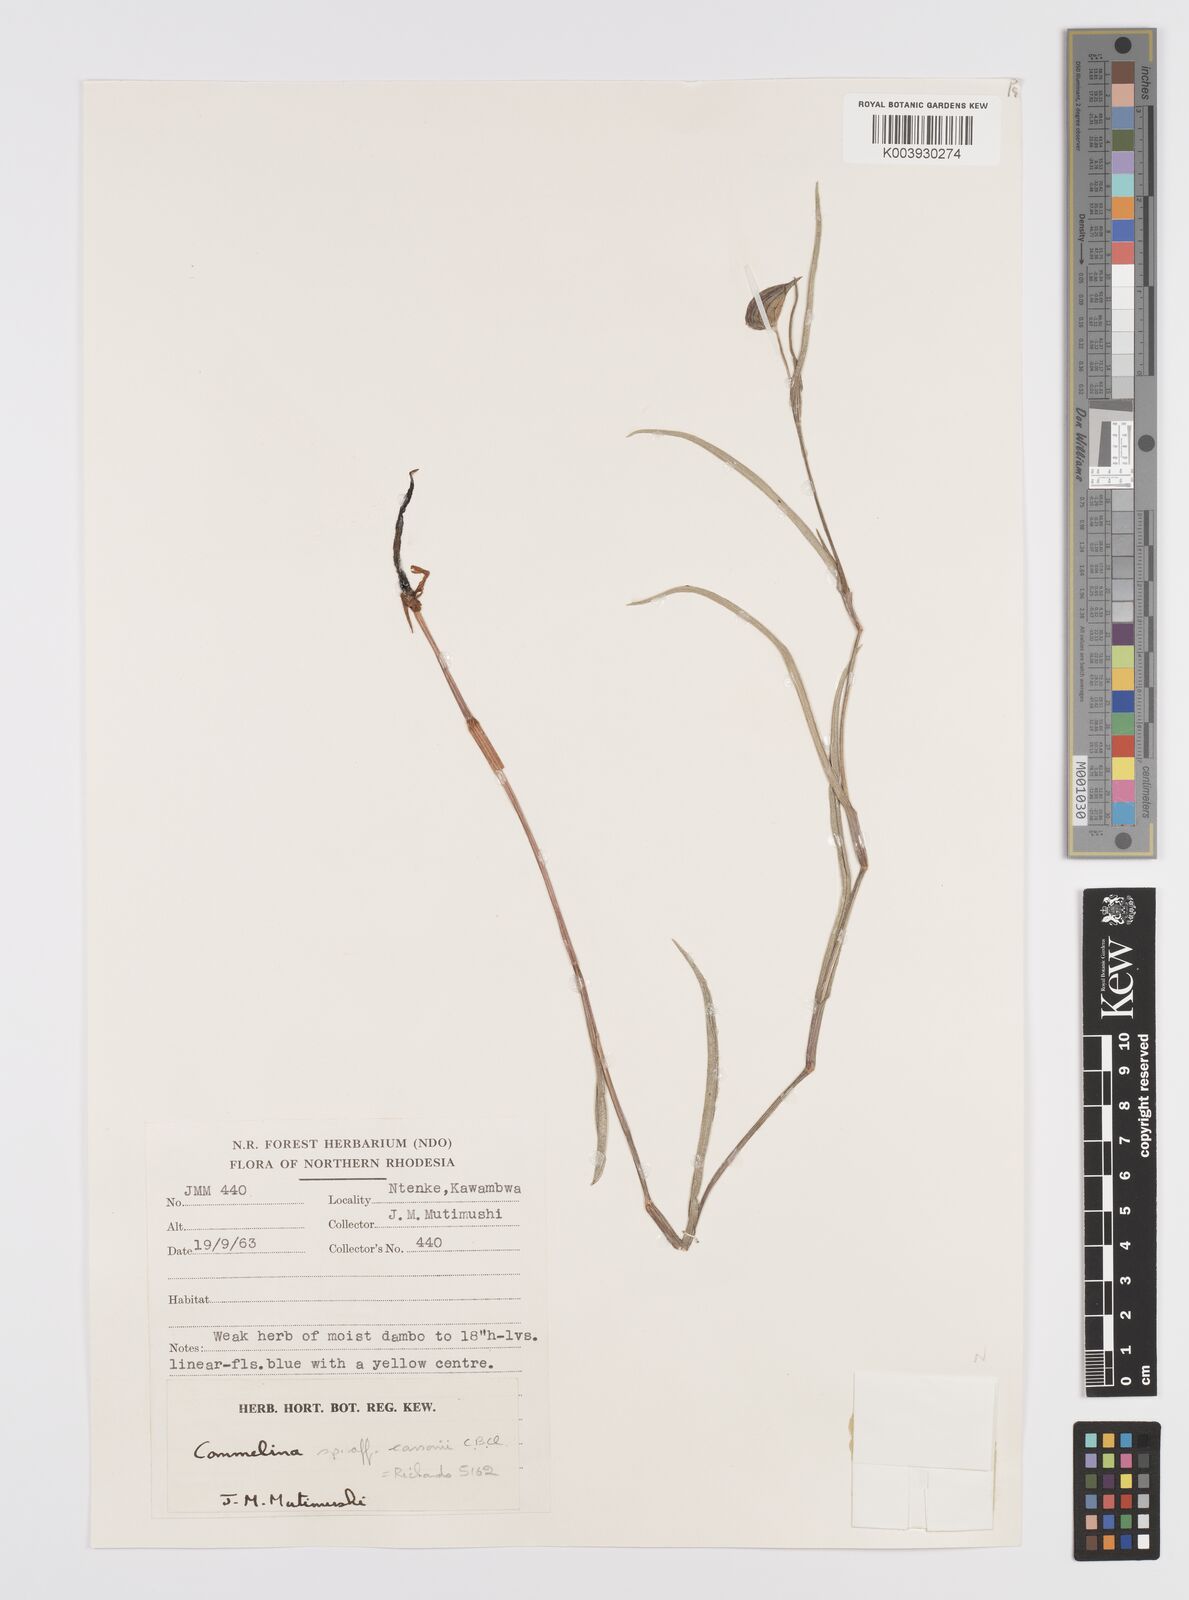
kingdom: Plantae
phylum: Tracheophyta
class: Liliopsida
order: Commelinales
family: Commelinaceae
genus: Commelina
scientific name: Commelina schweinfurthii
